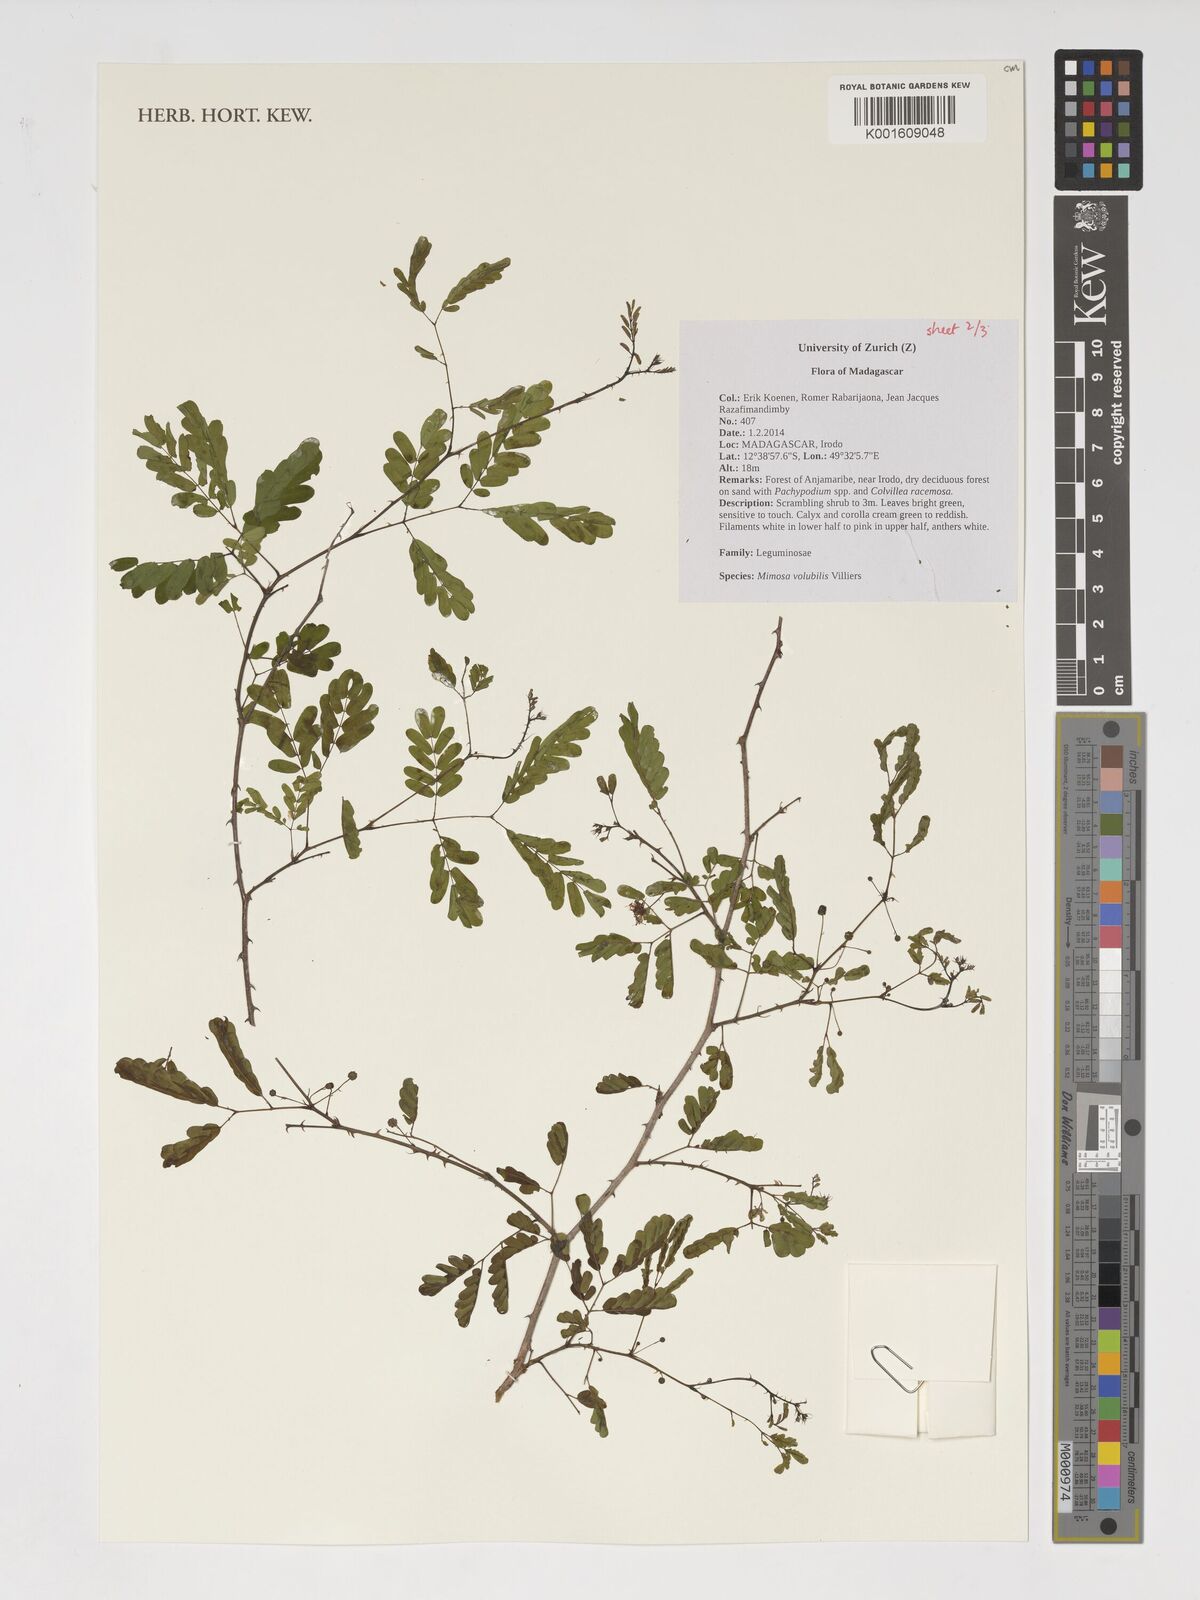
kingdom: Plantae
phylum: Tracheophyta
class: Magnoliopsida
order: Fabales
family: Fabaceae
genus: Mimosa
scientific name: Mimosa volubilis
